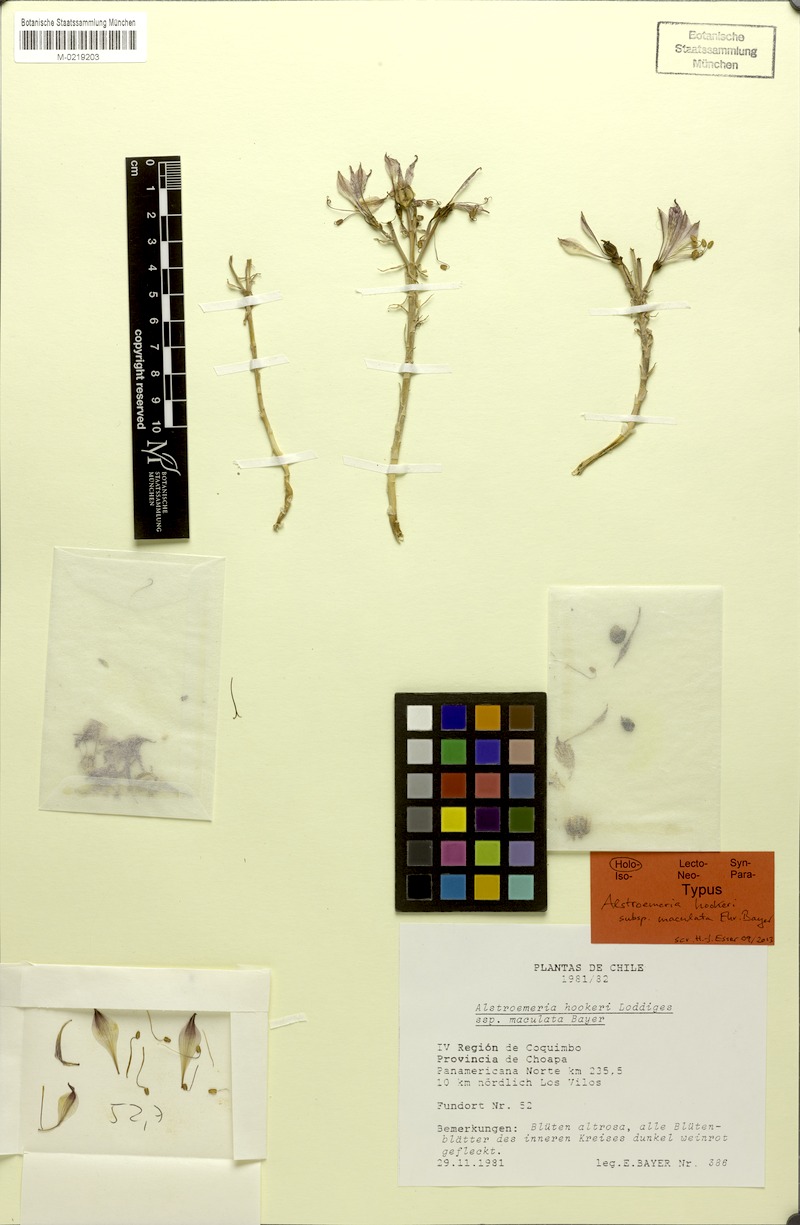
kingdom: Plantae
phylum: Tracheophyta
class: Liliopsida
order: Liliales
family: Alstroemeriaceae
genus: Alstroemeria
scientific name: Alstroemeria hookeri
